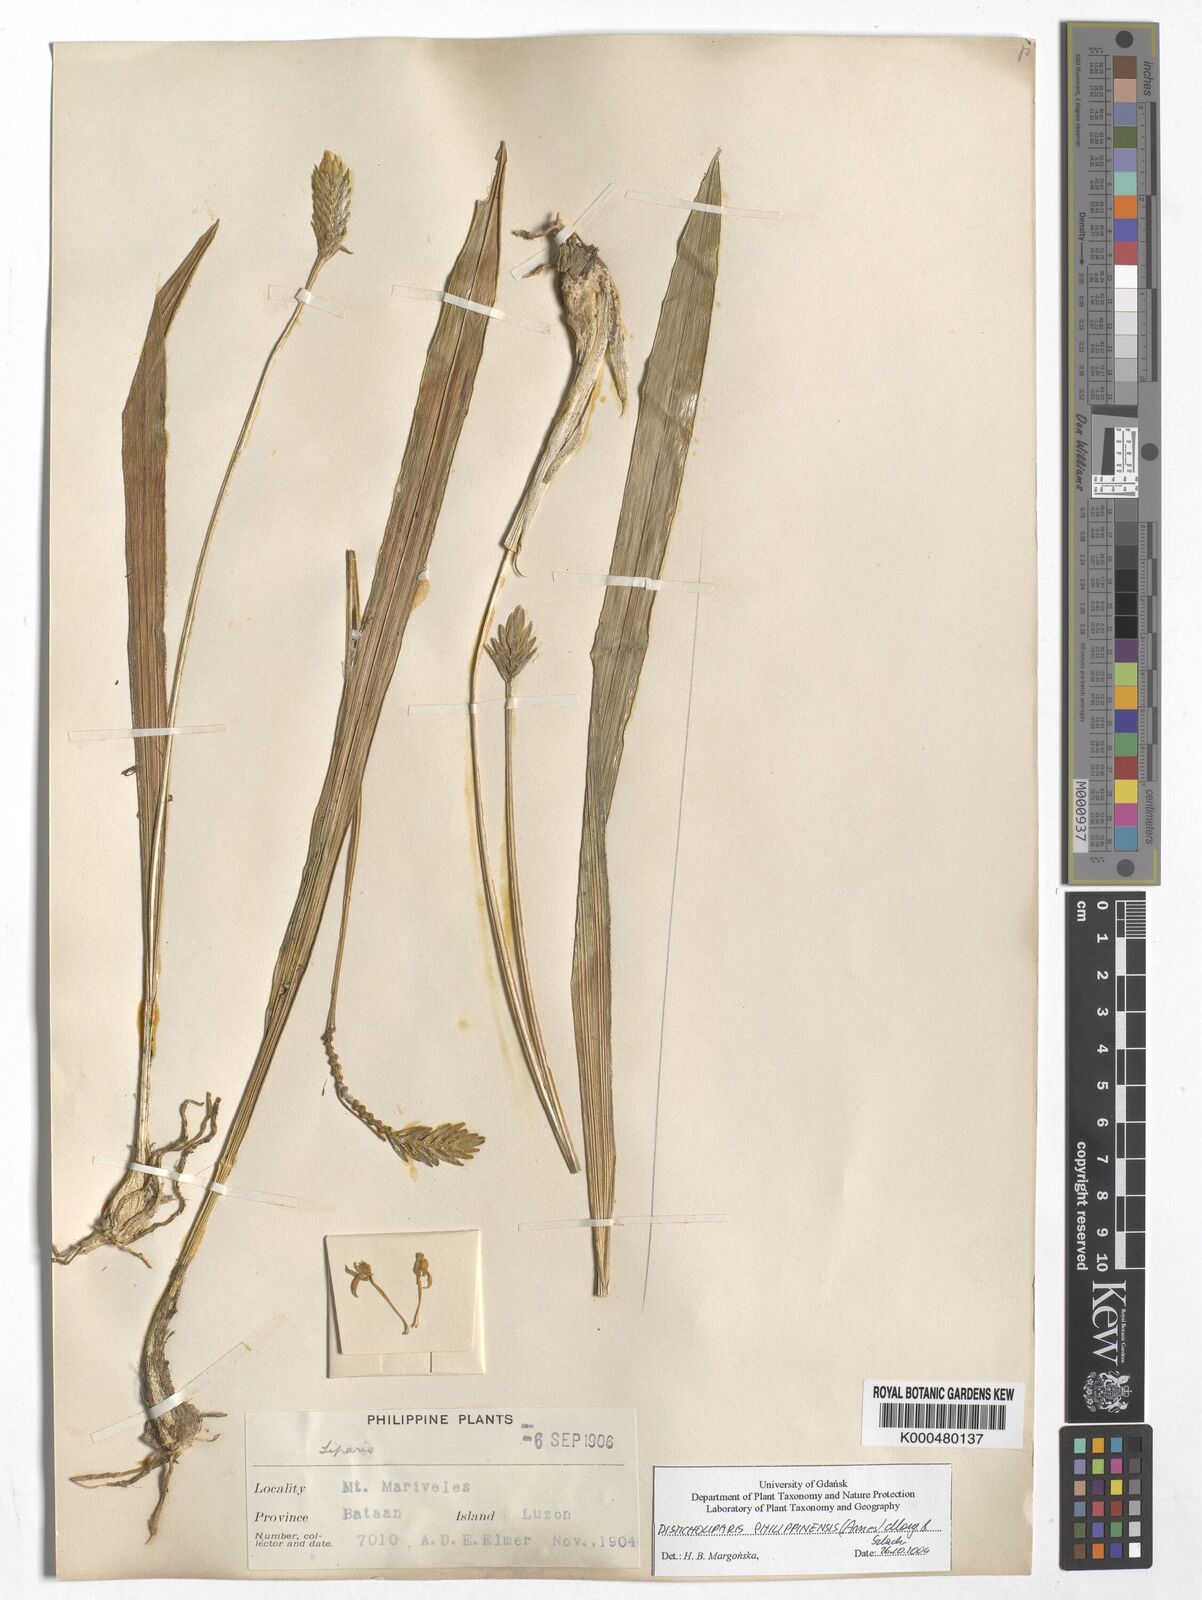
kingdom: Plantae
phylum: Tracheophyta
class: Liliopsida
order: Asparagales
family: Orchidaceae
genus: Liparis
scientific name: Liparis philippinensis
